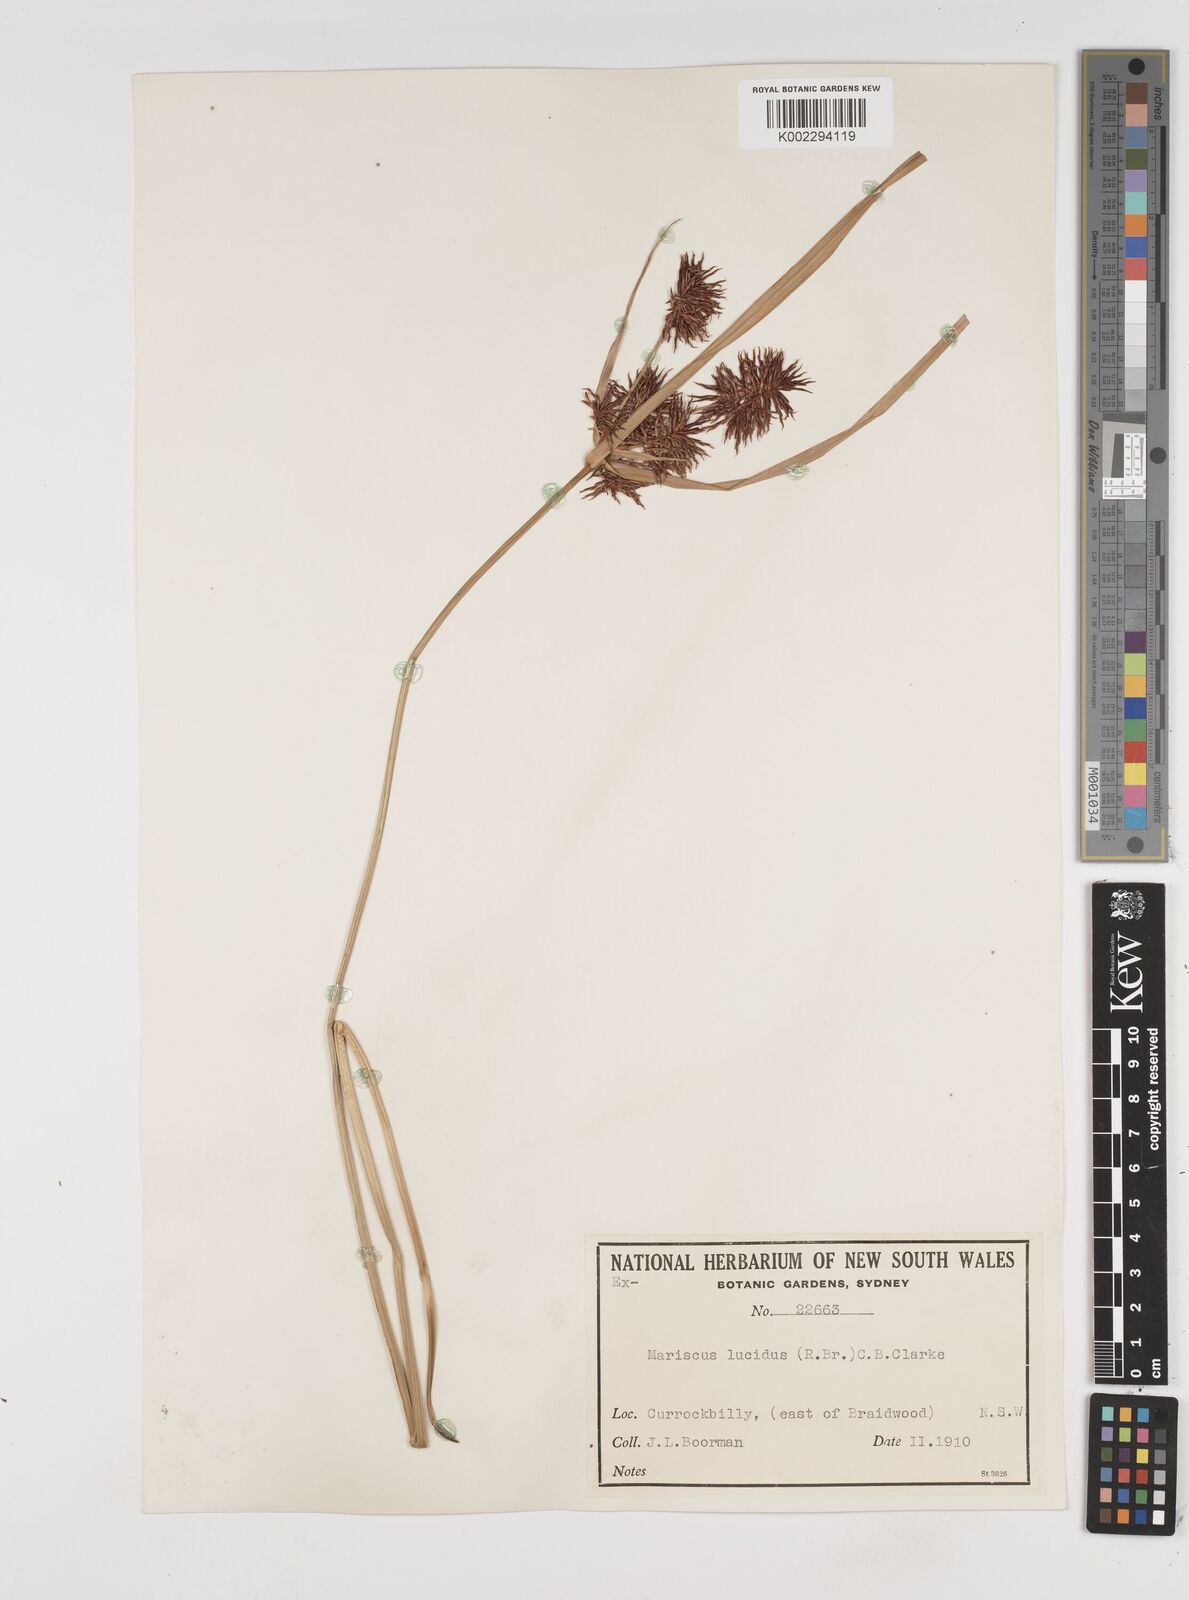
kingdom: Plantae
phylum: Tracheophyta
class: Liliopsida
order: Poales
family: Cyperaceae
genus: Cyperus
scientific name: Cyperus lucidus
